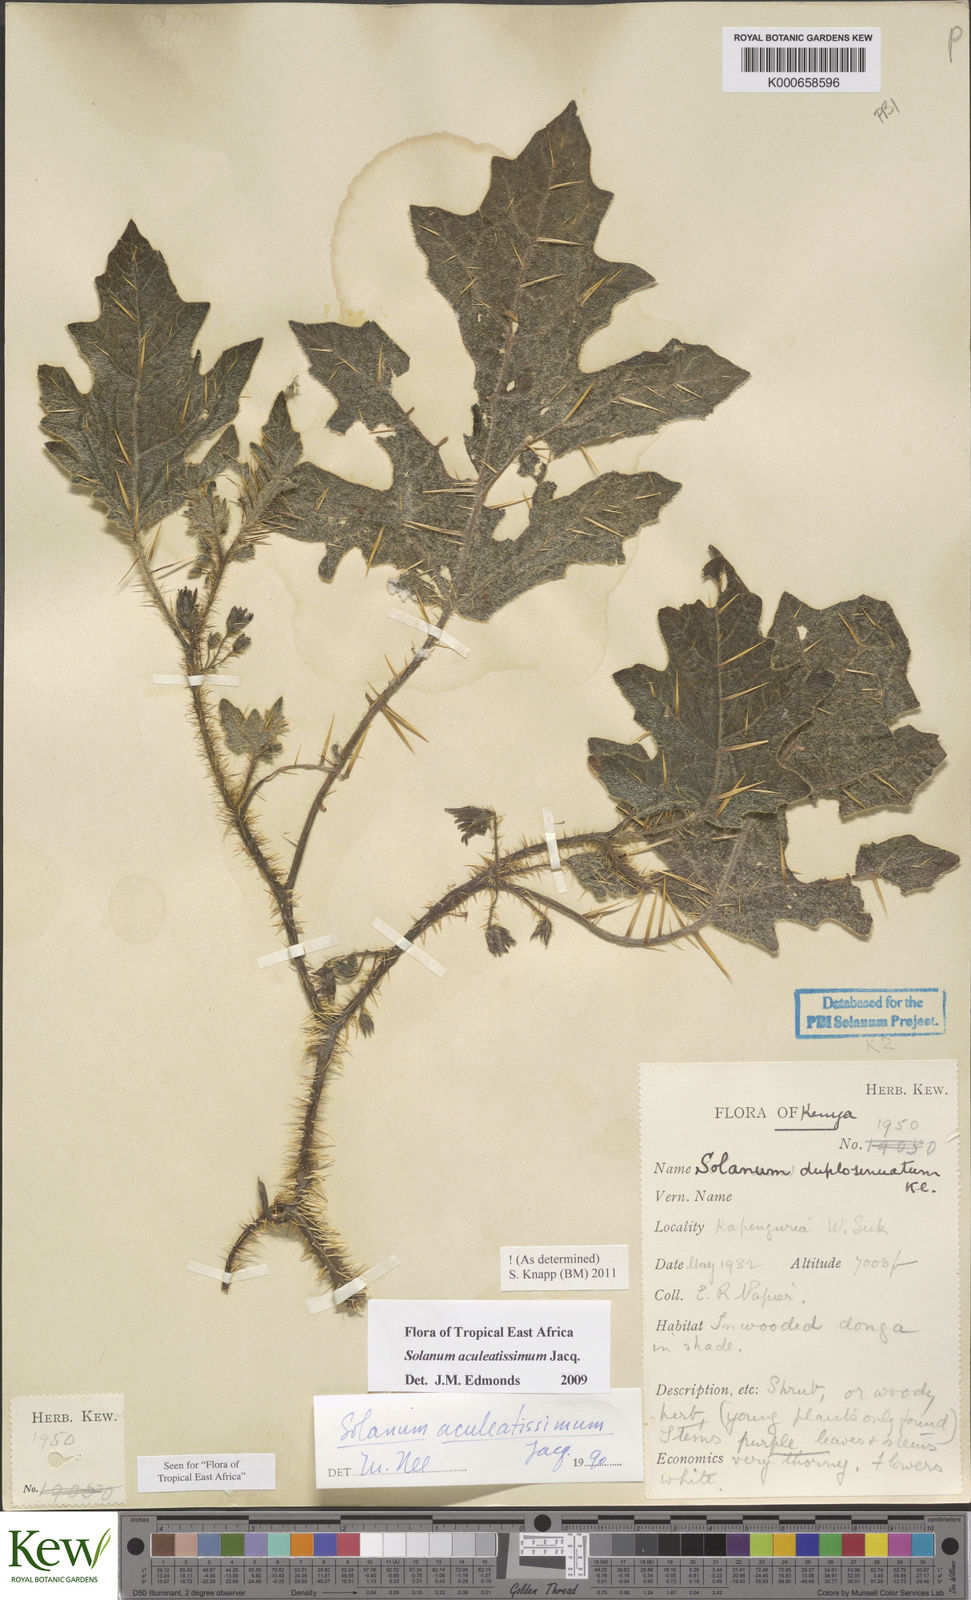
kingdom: Plantae
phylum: Tracheophyta
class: Magnoliopsida
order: Solanales
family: Solanaceae
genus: Solanum
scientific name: Solanum aculeatissimum
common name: Dutch eggplant
